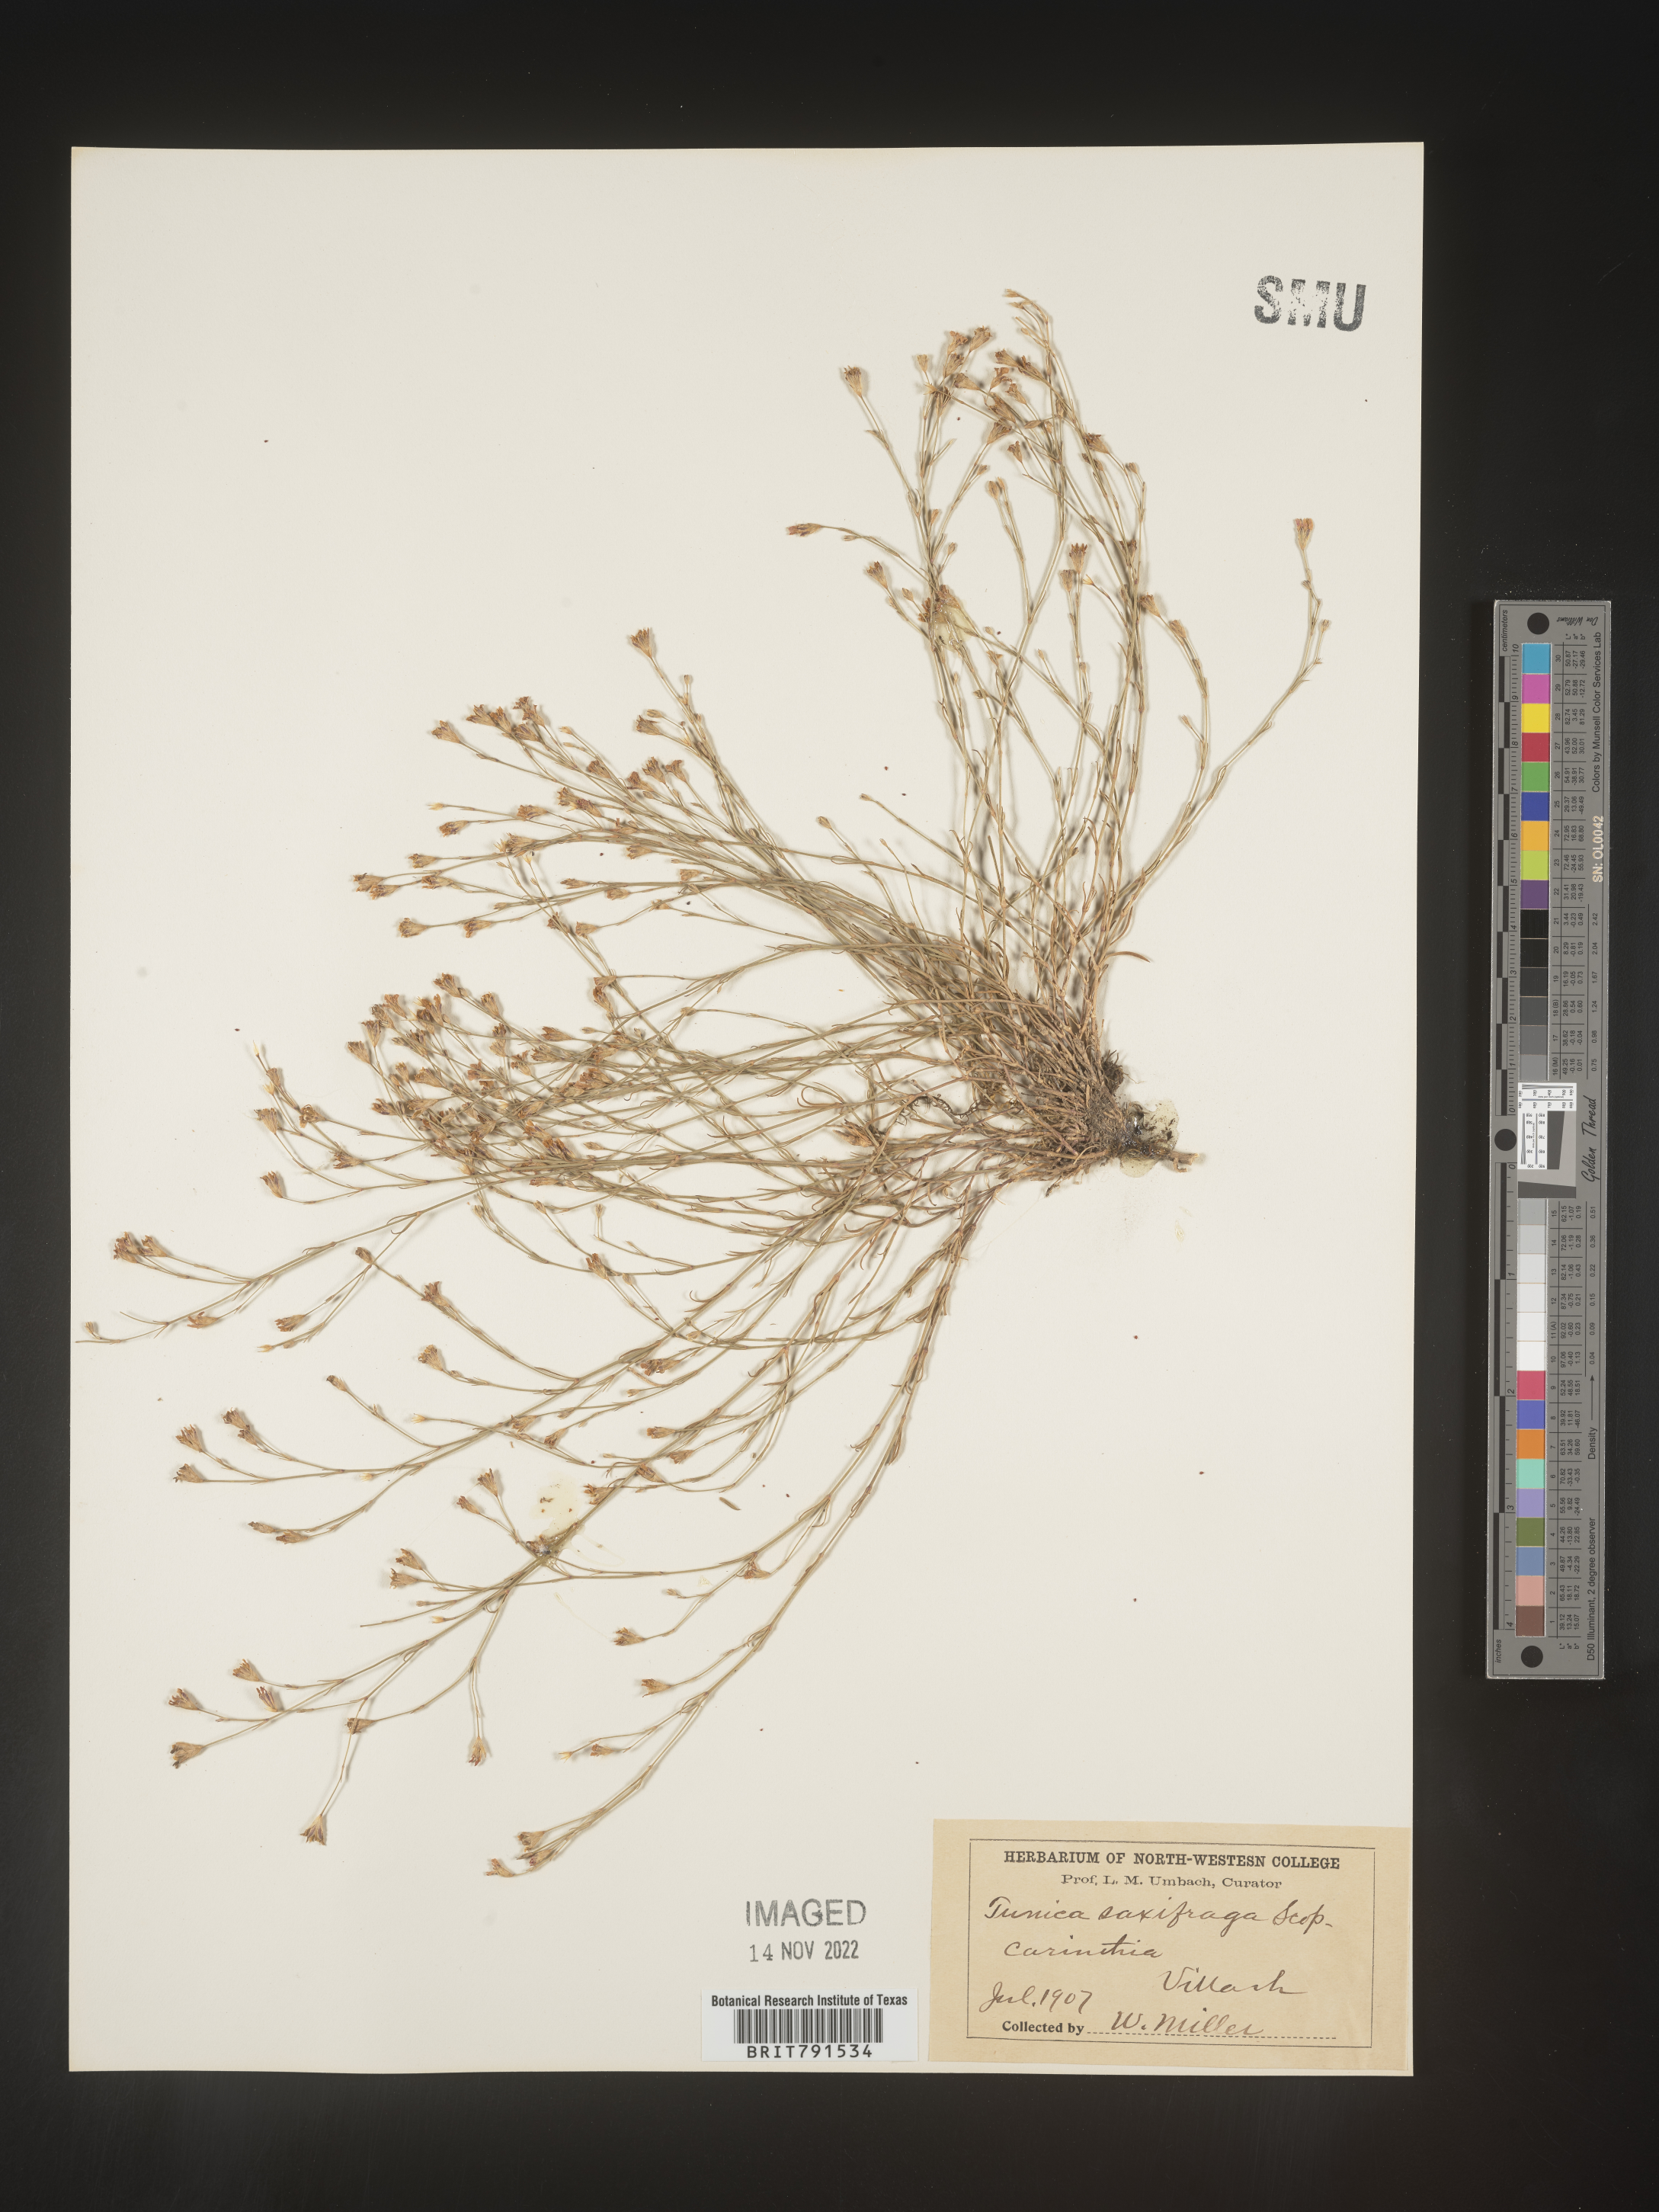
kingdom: Plantae
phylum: Tracheophyta
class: Magnoliopsida
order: Caryophyllales
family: Caryophyllaceae
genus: Petrorhagia
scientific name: Petrorhagia
